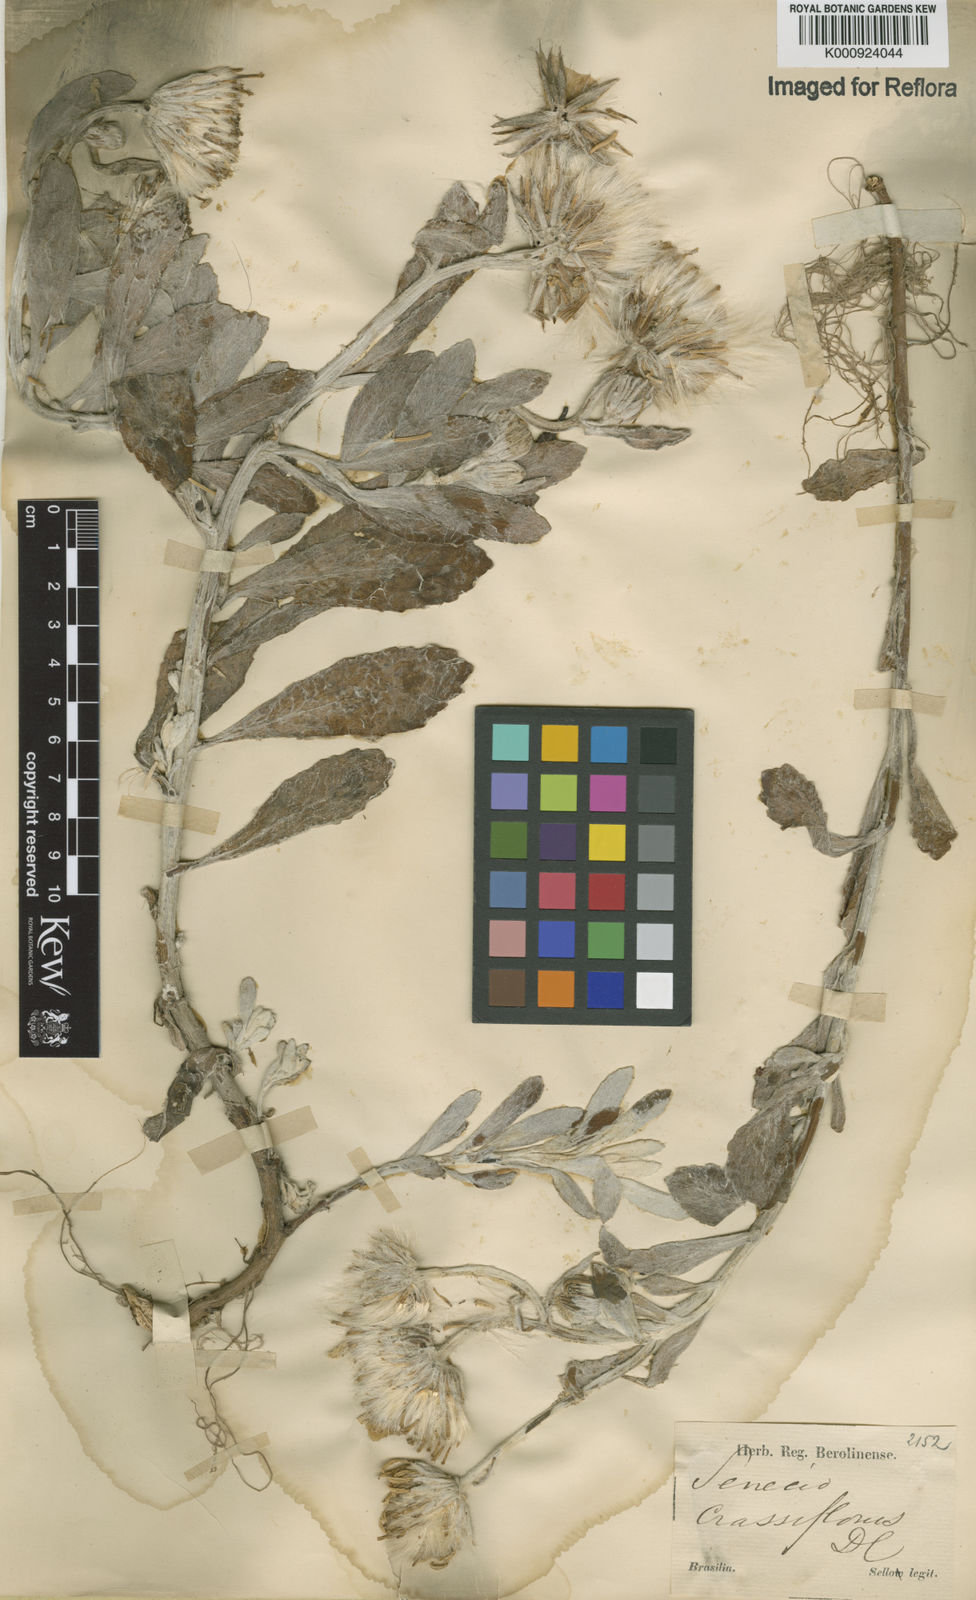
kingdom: Plantae
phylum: Tracheophyta
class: Magnoliopsida
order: Asterales
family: Asteraceae
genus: Senecio
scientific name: Senecio crassiflorus
